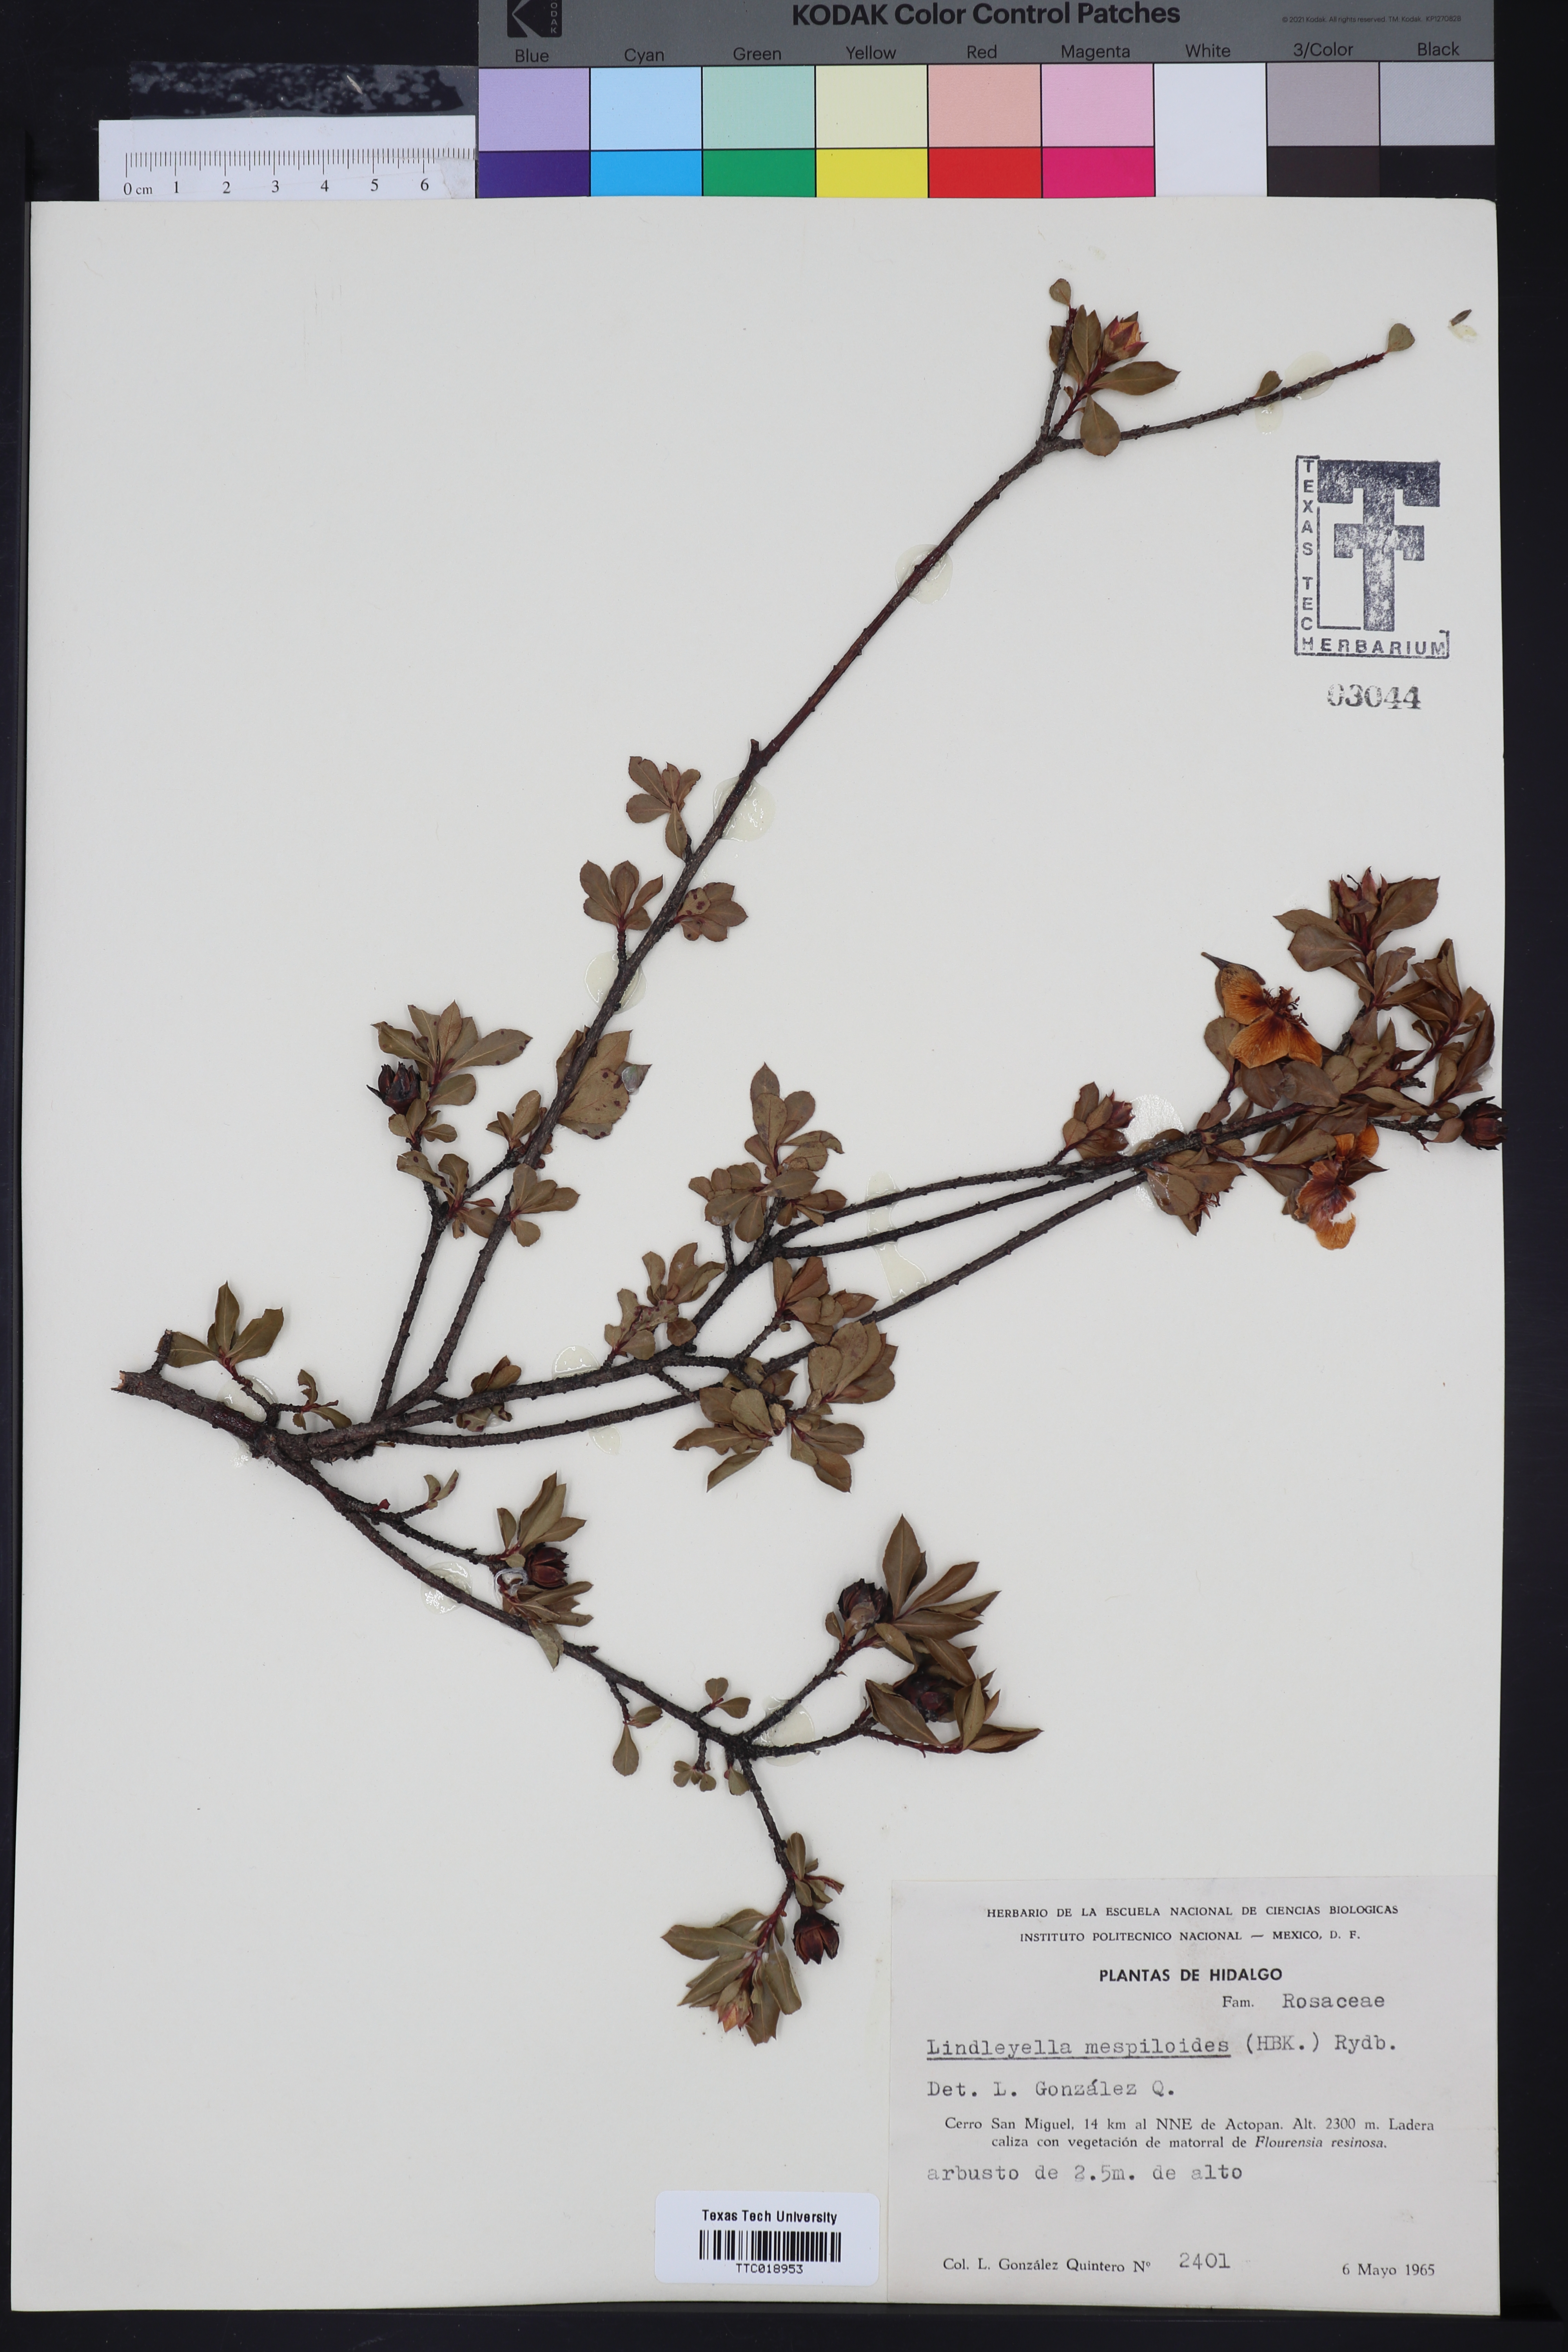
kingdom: Plantae
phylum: Tracheophyta
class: Magnoliopsida
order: Rosales
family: Rosaceae
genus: Lindleya
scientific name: Lindleya mespiloides
